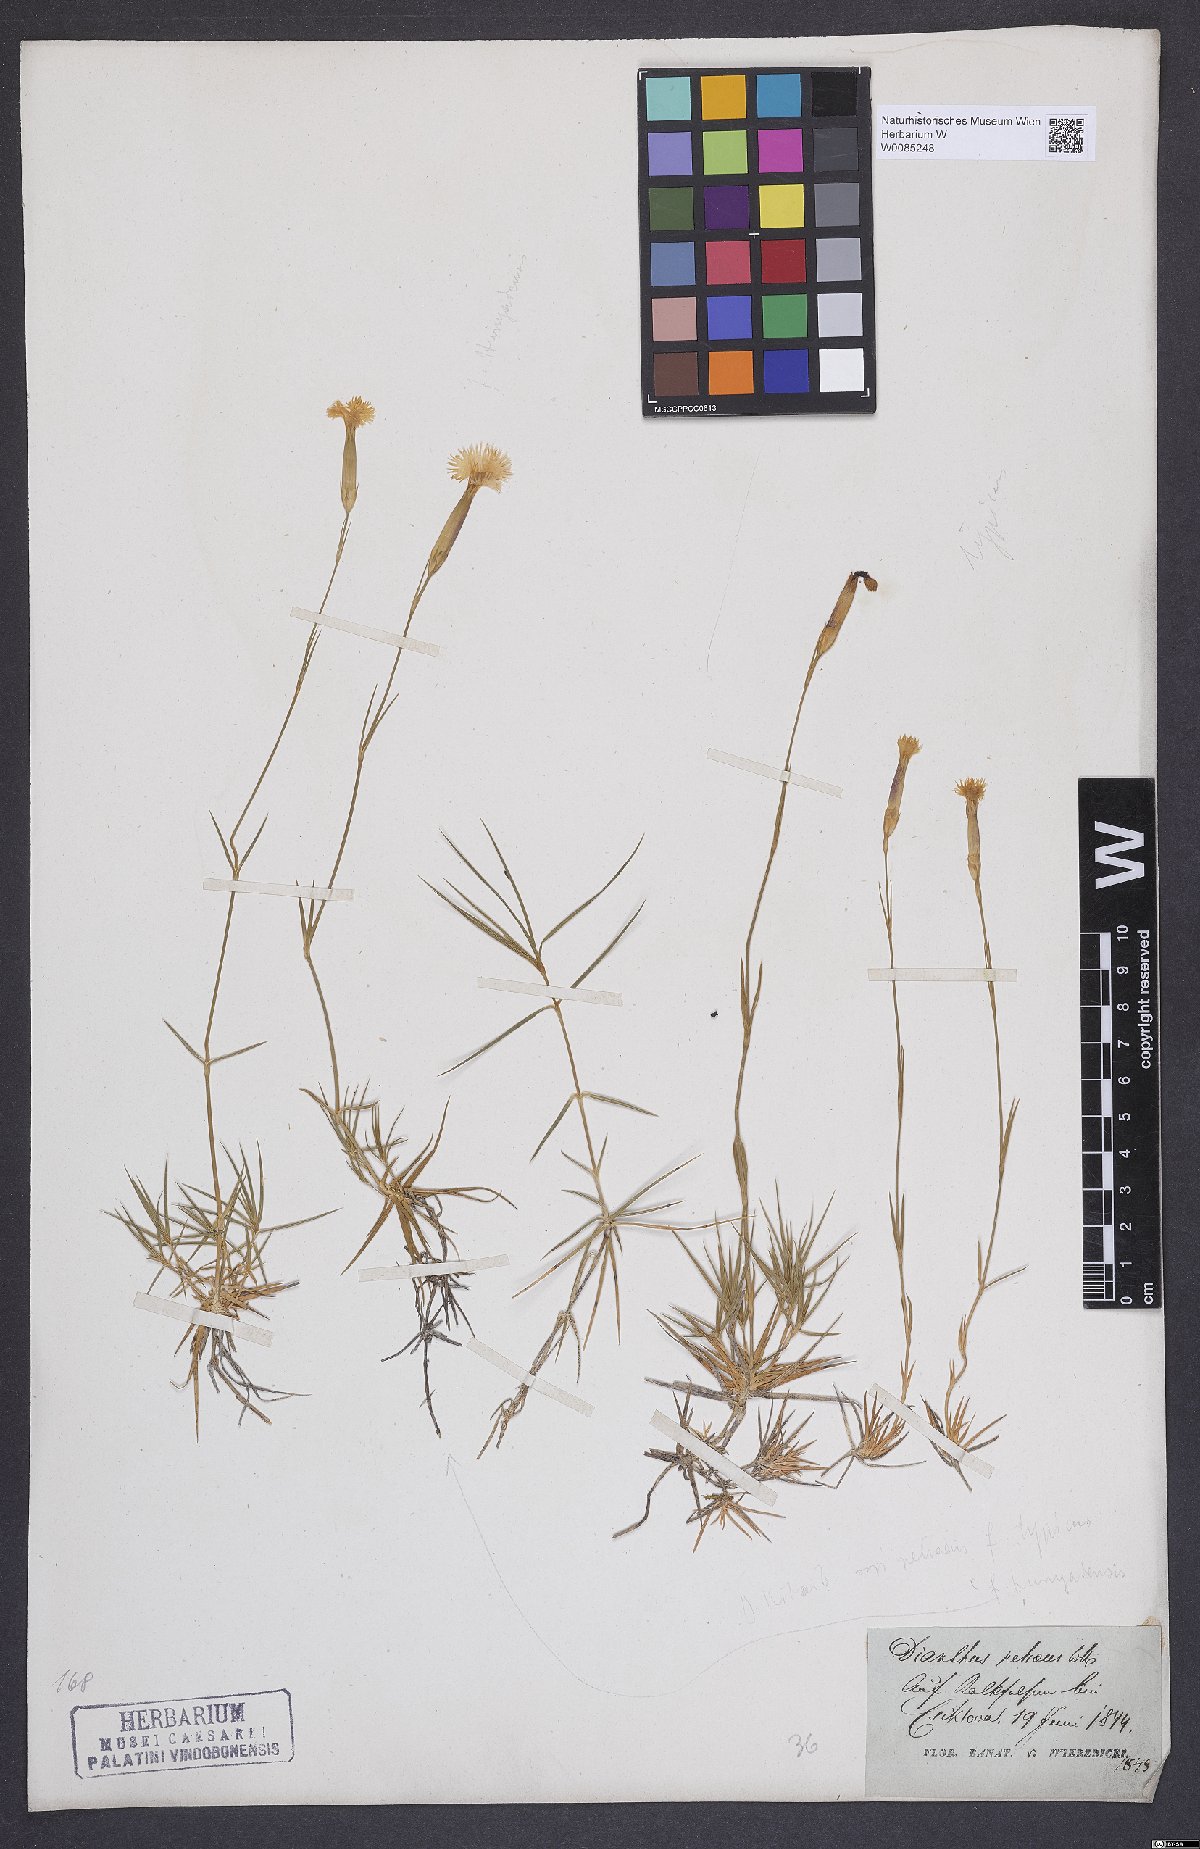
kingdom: Plantae
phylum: Tracheophyta
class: Magnoliopsida
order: Caryophyllales
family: Caryophyllaceae
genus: Dianthus
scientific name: Dianthus petraeus
